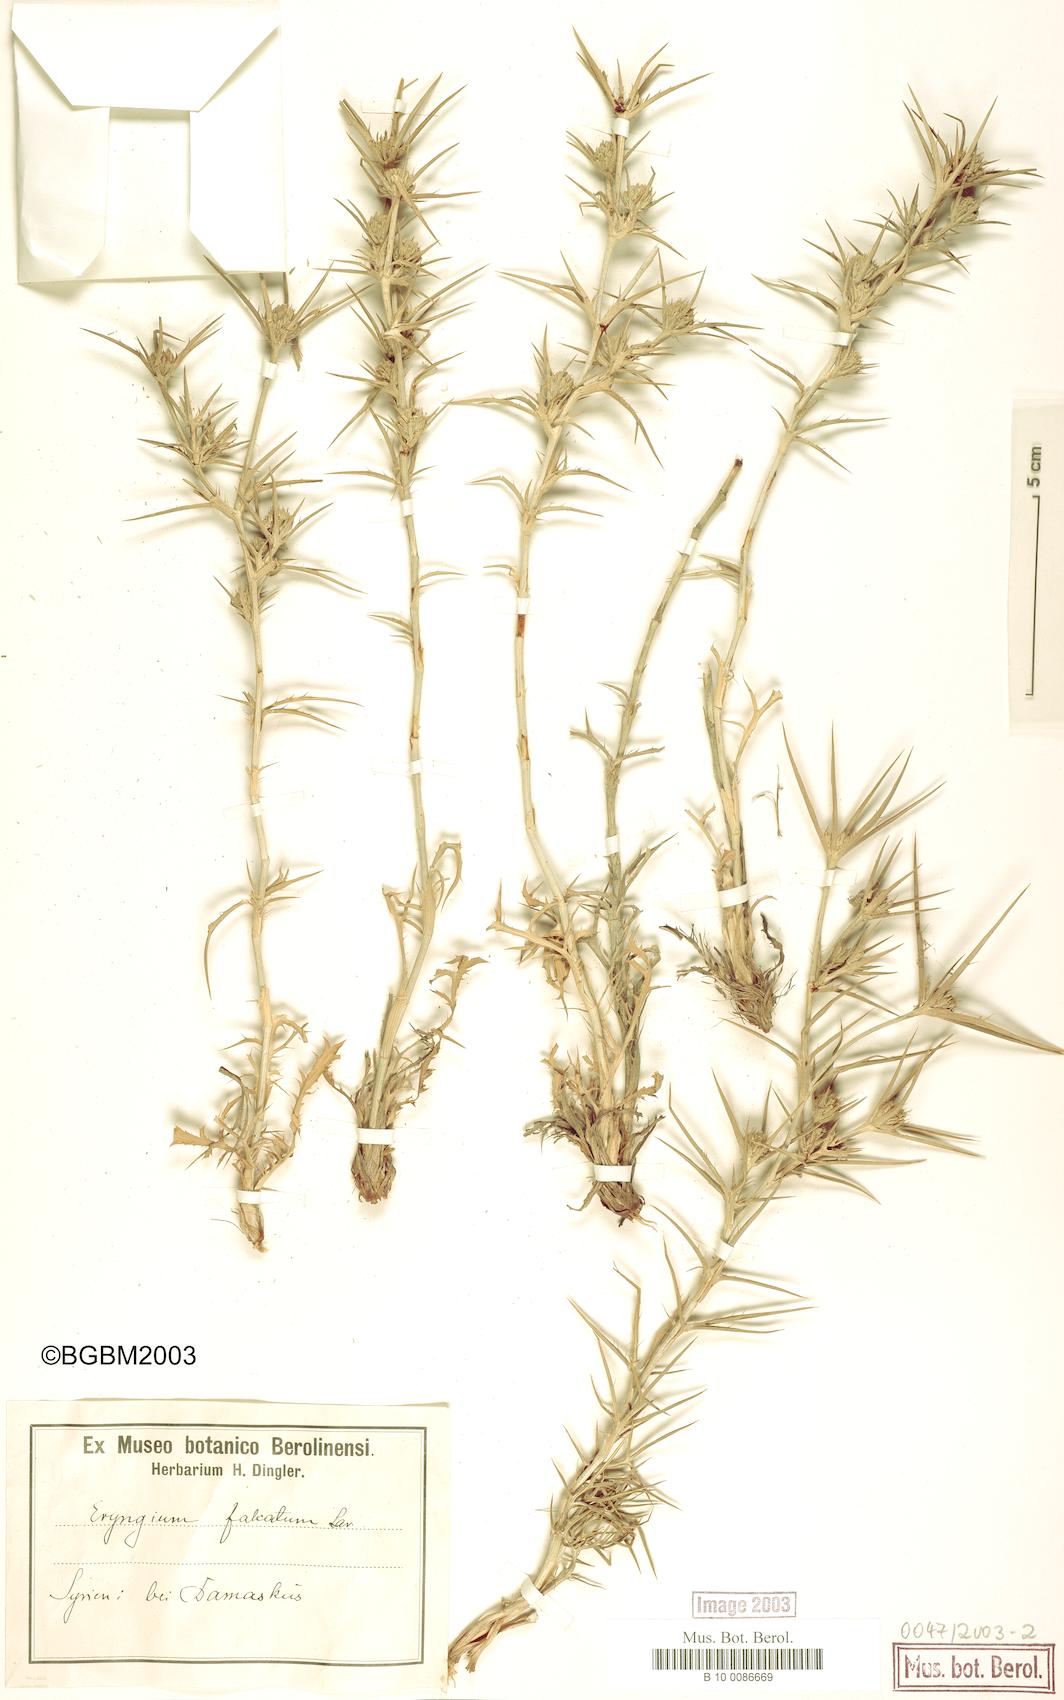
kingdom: Plantae
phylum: Tracheophyta
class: Magnoliopsida
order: Apiales
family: Apiaceae
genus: Eryngium
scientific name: Eryngium falcatum
